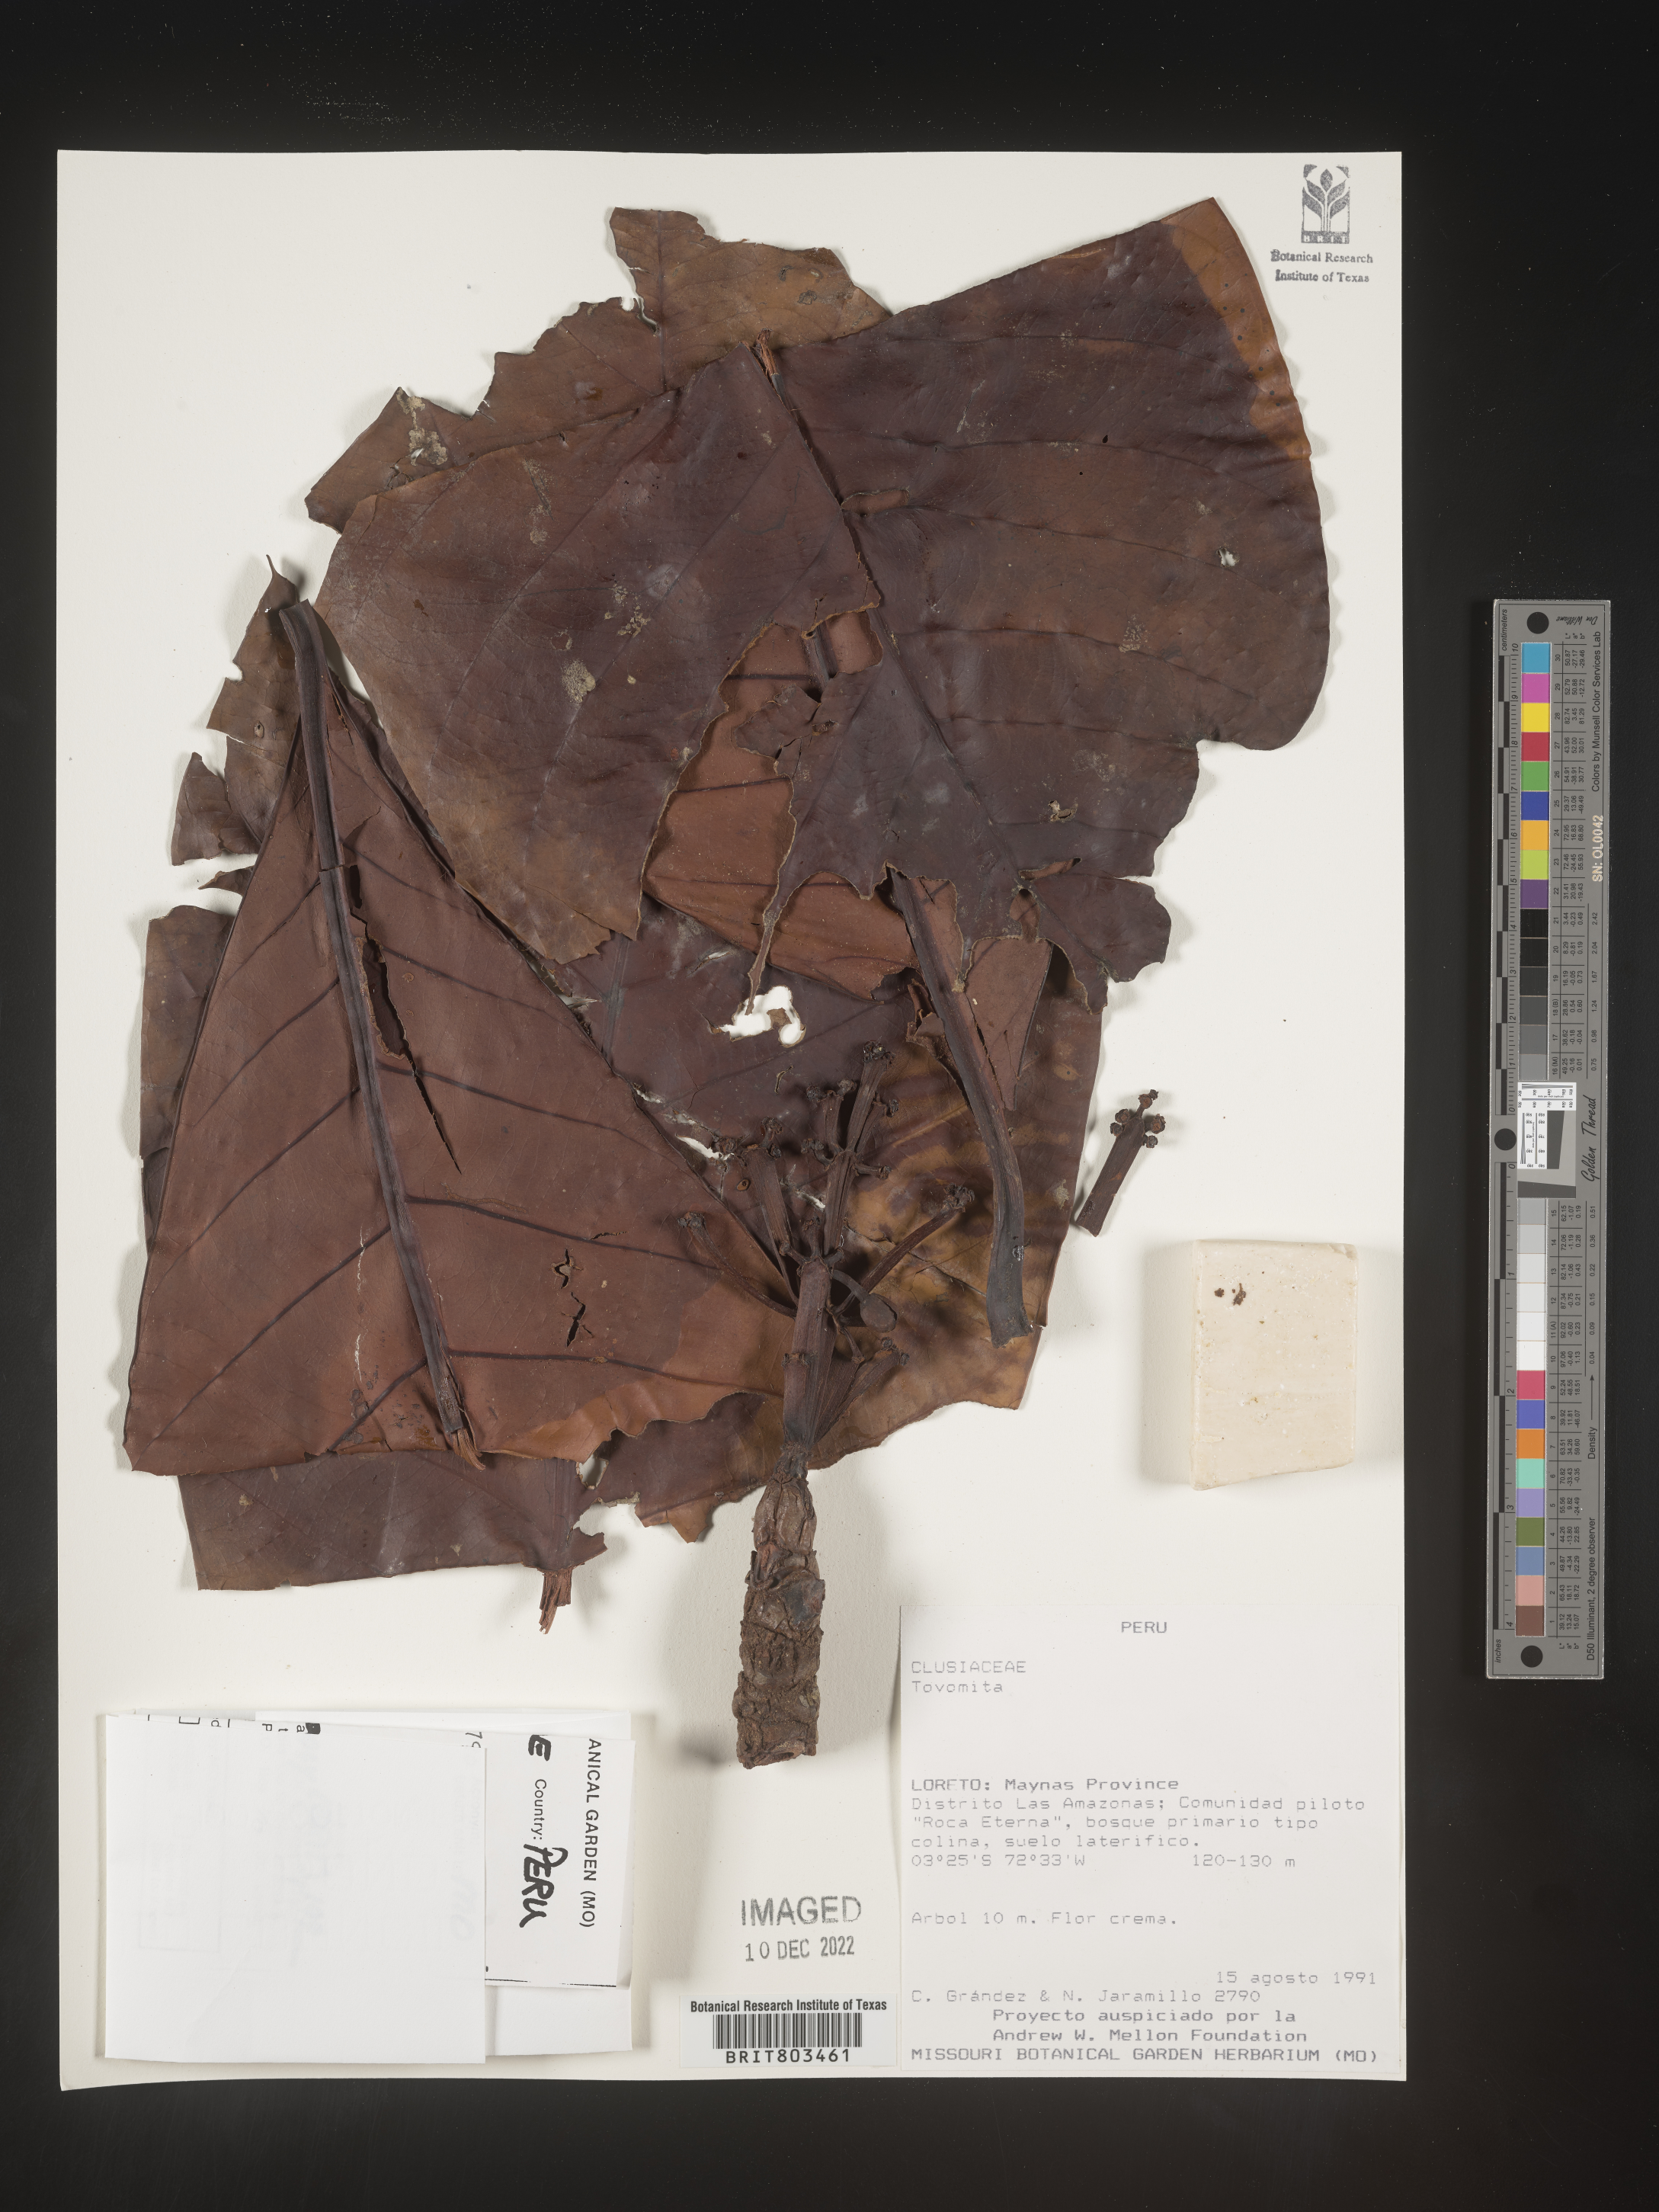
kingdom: Plantae
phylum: Tracheophyta
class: Magnoliopsida
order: Malpighiales
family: Clusiaceae
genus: Tovomita
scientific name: Tovomita
